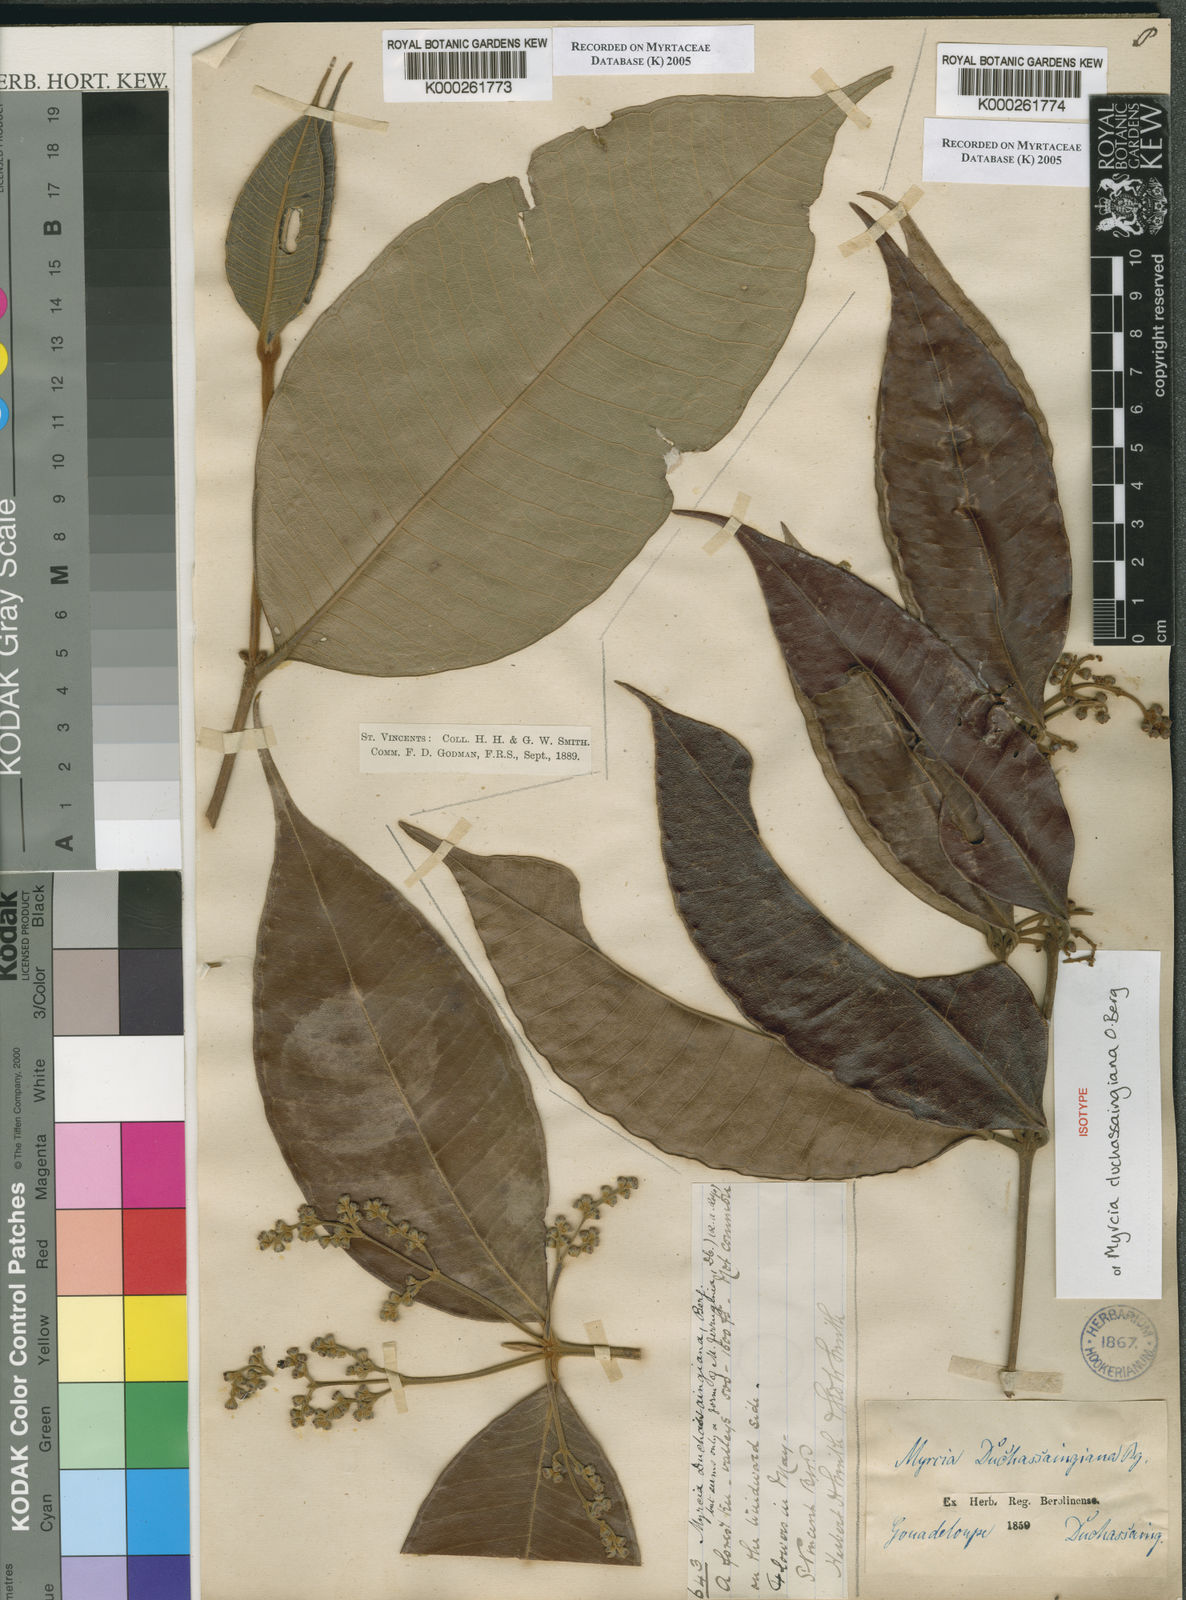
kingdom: Plantae
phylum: Tracheophyta
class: Magnoliopsida
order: Myrtales
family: Myrtaceae
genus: Myrcia
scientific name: Myrcia deflexa
